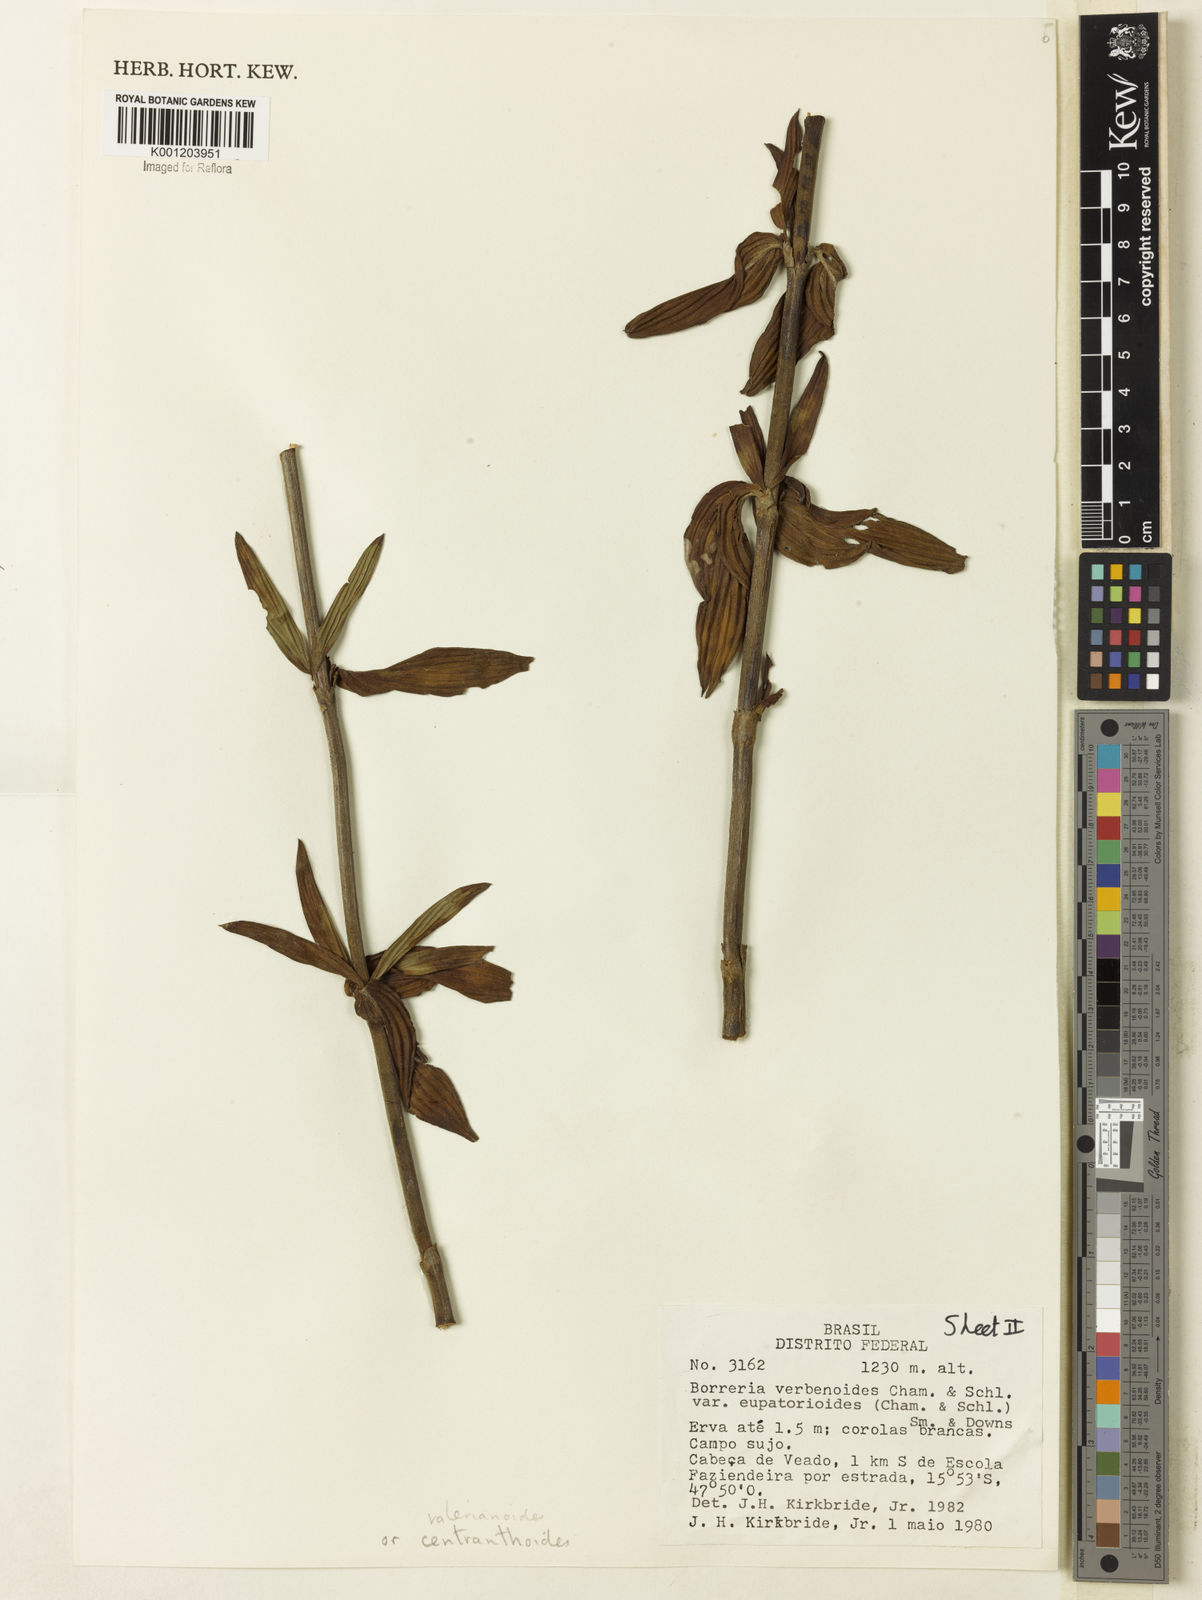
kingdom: Plantae
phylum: Tracheophyta
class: Magnoliopsida
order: Gentianales
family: Rubiaceae
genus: Galianthe
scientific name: Galianthe grandifolia
